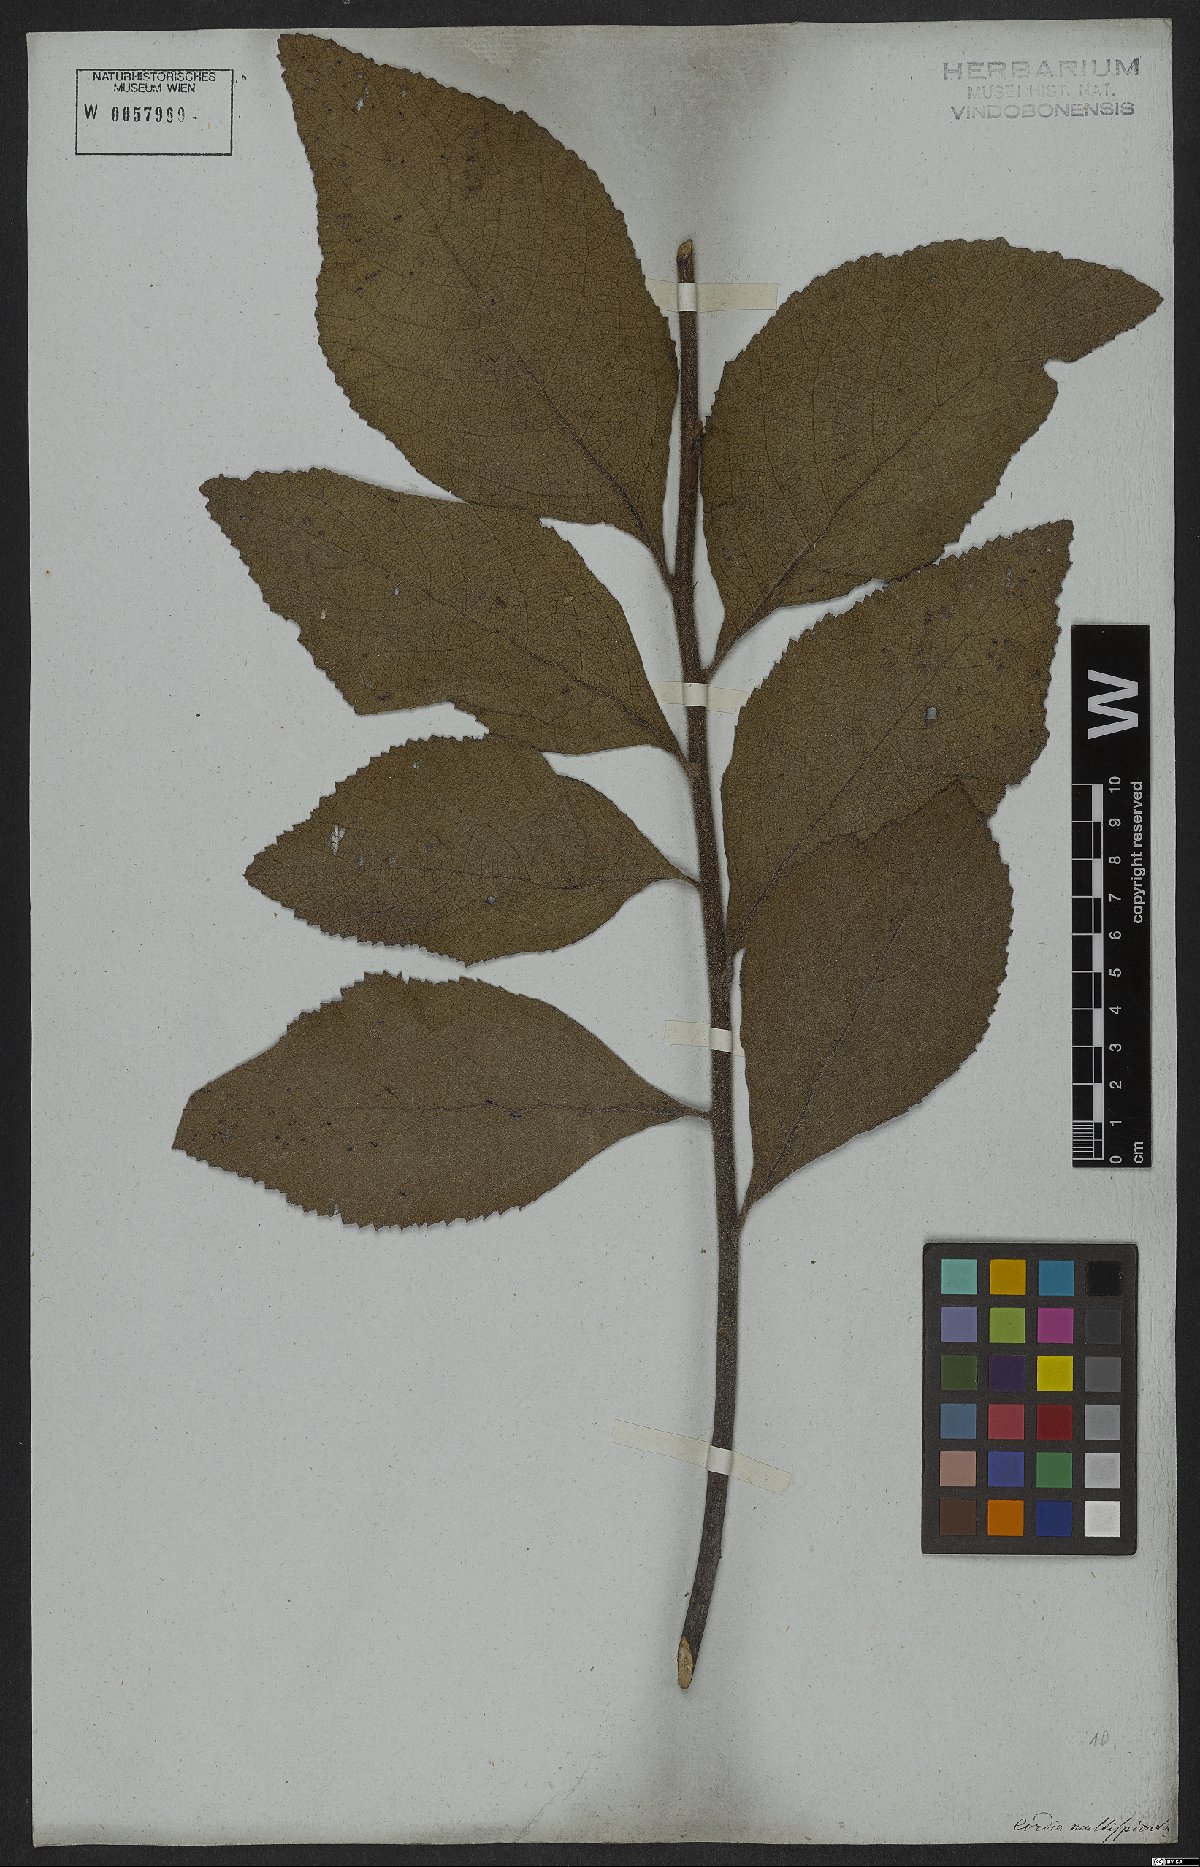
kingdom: Plantae
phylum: Tracheophyta
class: Magnoliopsida
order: Boraginales
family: Cordiaceae
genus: Varronia
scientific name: Varronia multispicata
